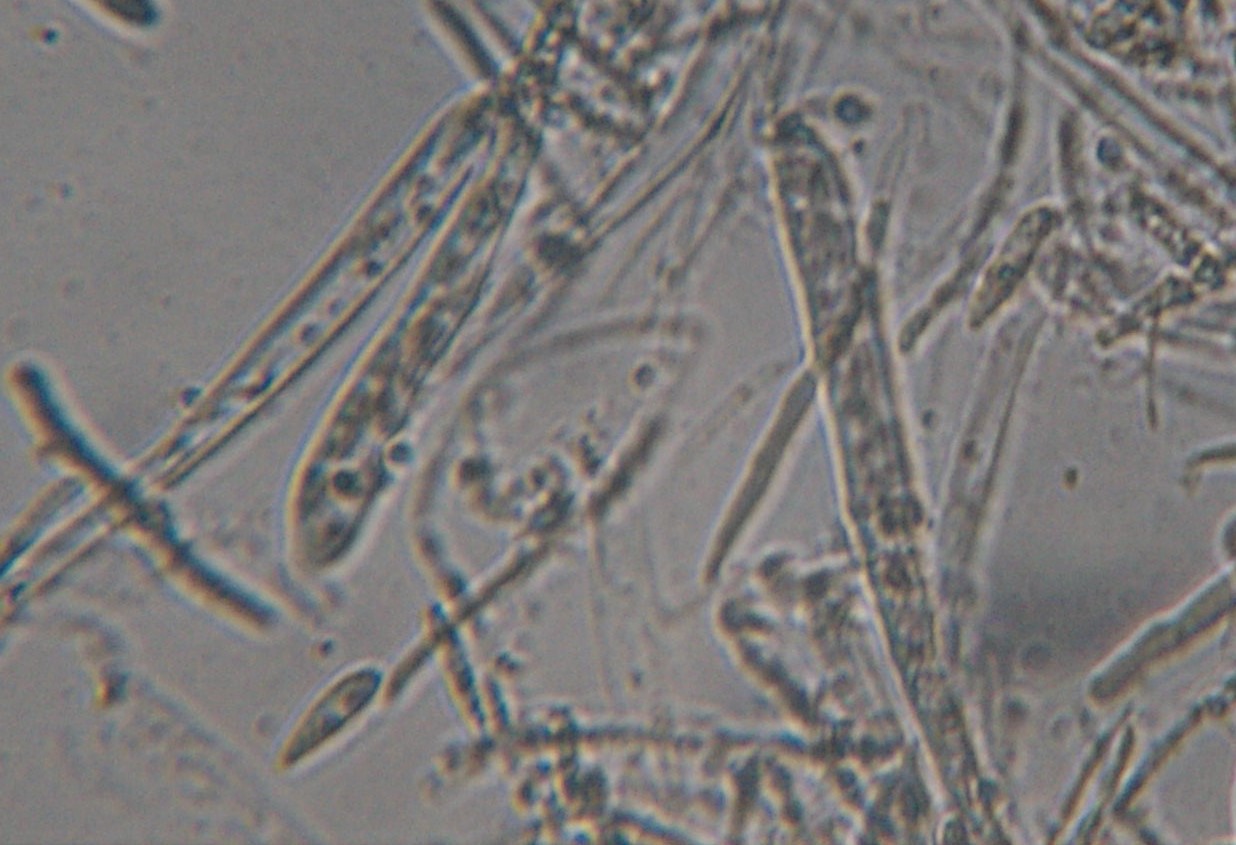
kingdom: Fungi
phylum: Ascomycota
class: Leotiomycetes
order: Helotiales
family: Helotiaceae
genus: Hymenoscyphus
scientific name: Hymenoscyphus fructigenus
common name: frugt-stilkskive
